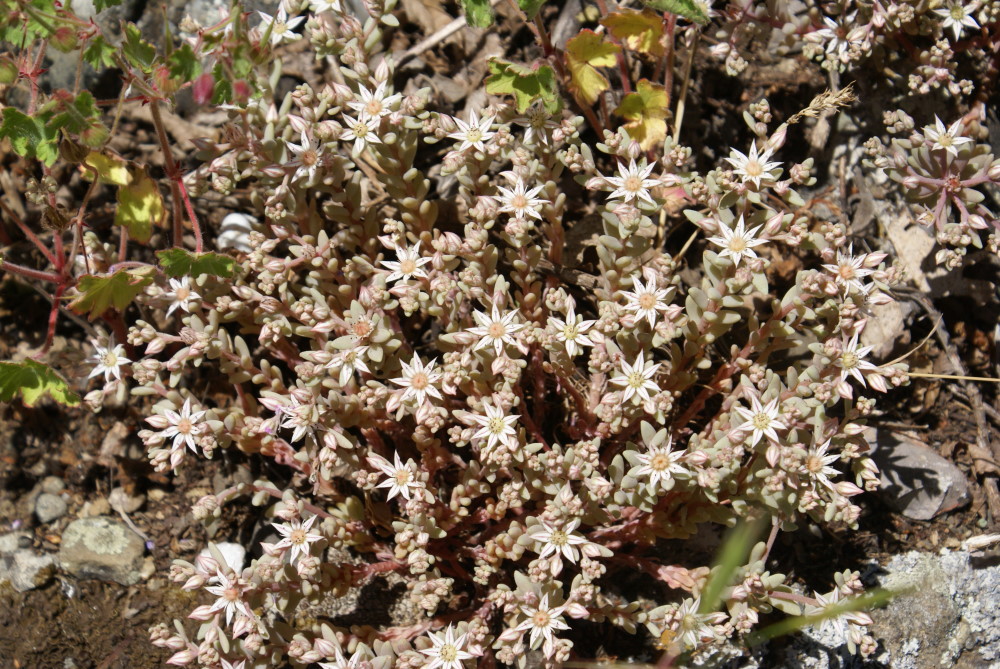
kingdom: Plantae
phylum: Tracheophyta
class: Magnoliopsida
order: Saxifragales
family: Crassulaceae
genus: Sedum
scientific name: Sedum hispanicum
